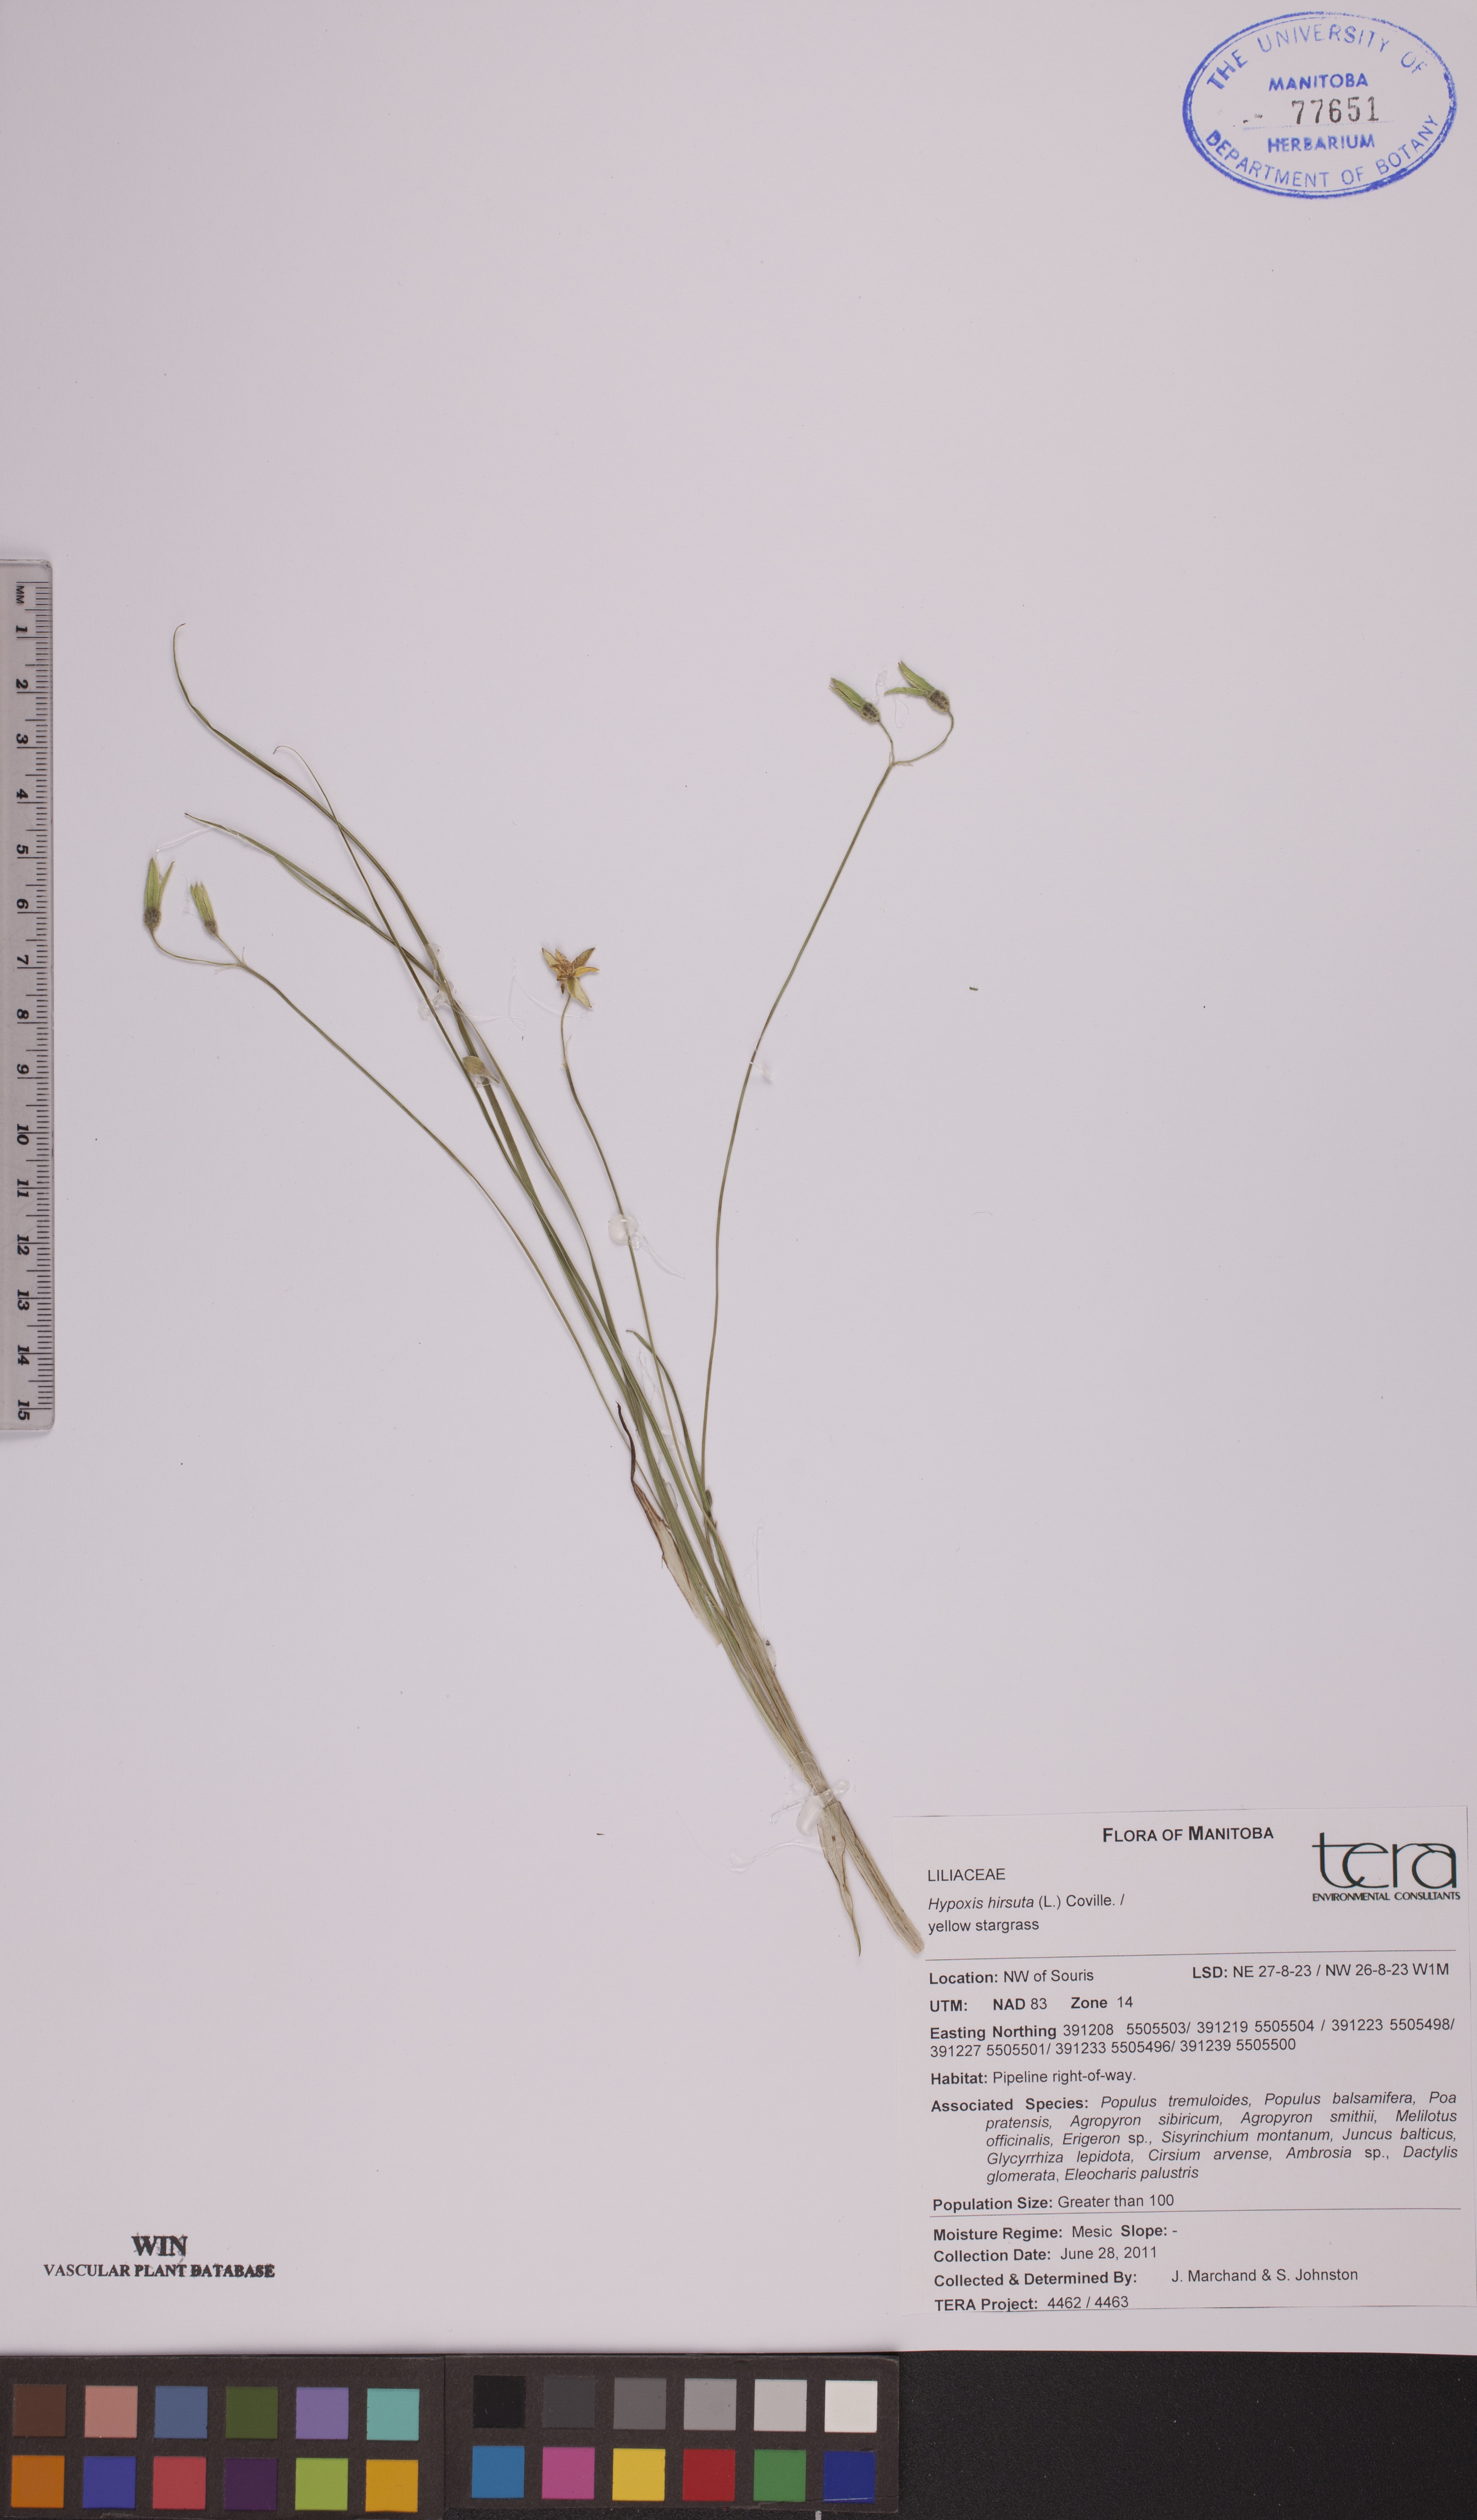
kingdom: Plantae
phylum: Tracheophyta
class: Liliopsida
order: Asparagales
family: Hypoxidaceae
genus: Hypoxis
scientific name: Hypoxis hirsuta
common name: Common goldstar
